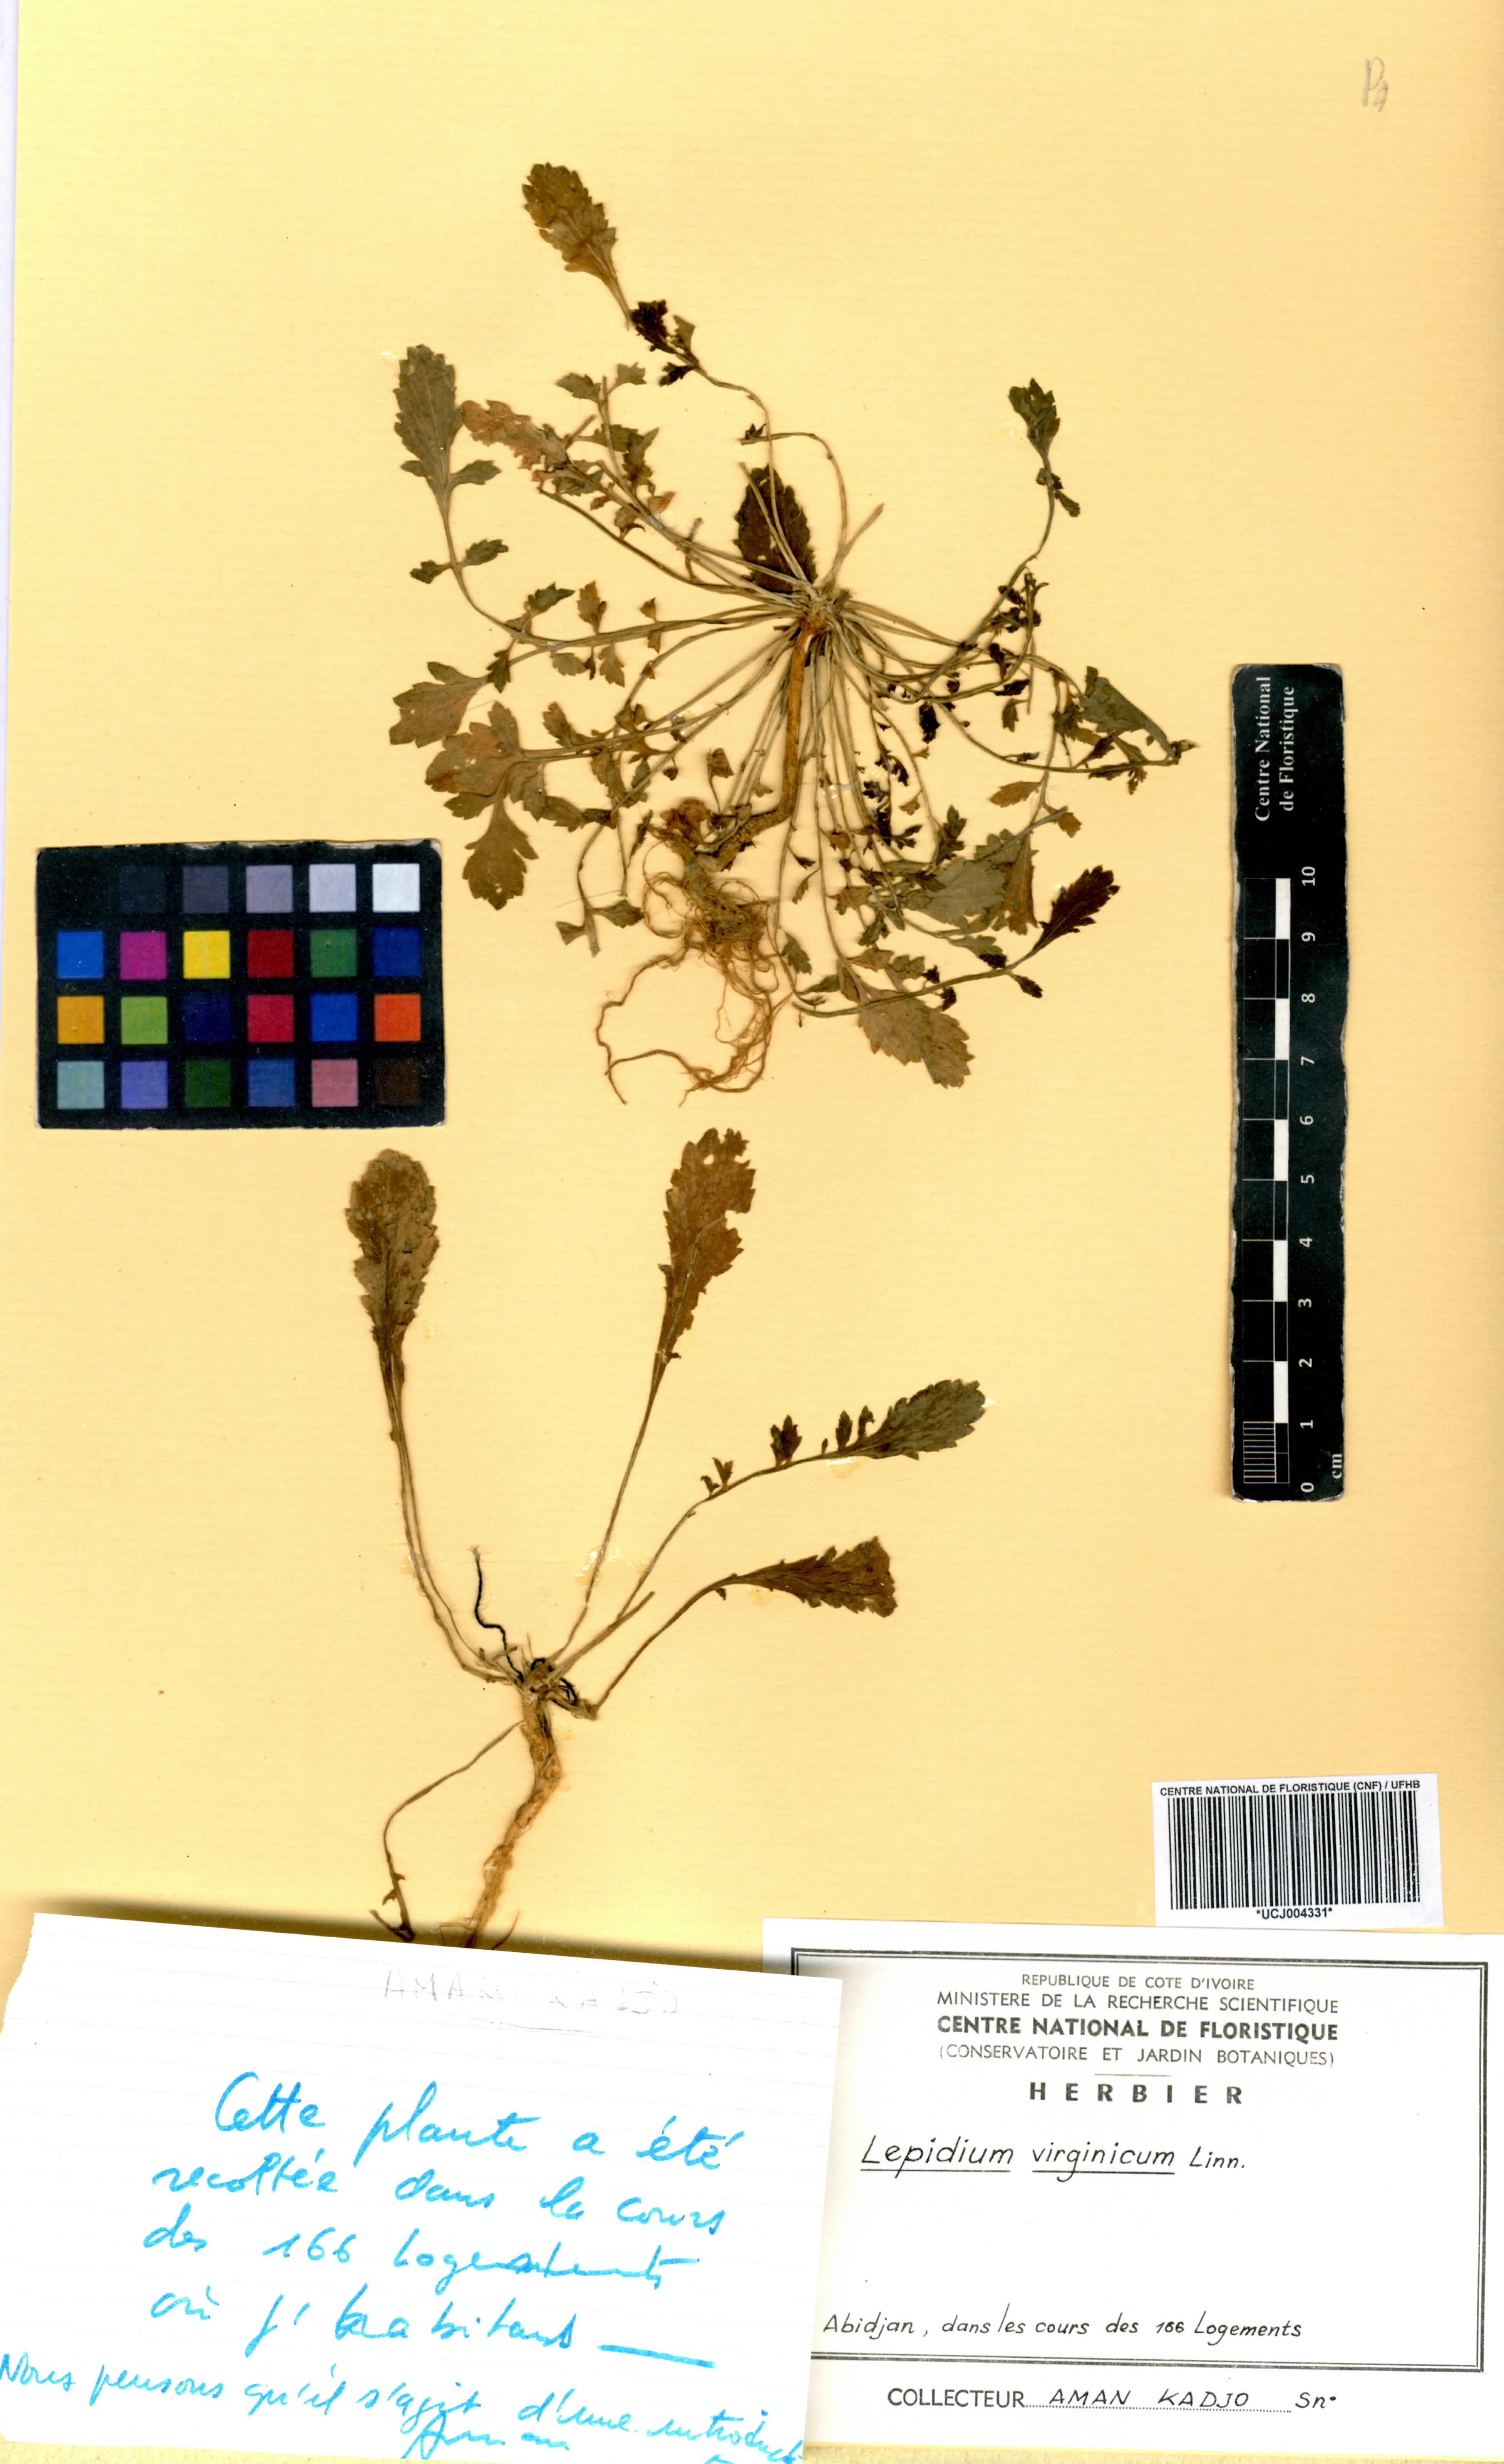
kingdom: Plantae
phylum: Tracheophyta
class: Magnoliopsida
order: Brassicales
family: Brassicaceae
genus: Lepidium
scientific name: Lepidium virginicum
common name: Least pepperwort
